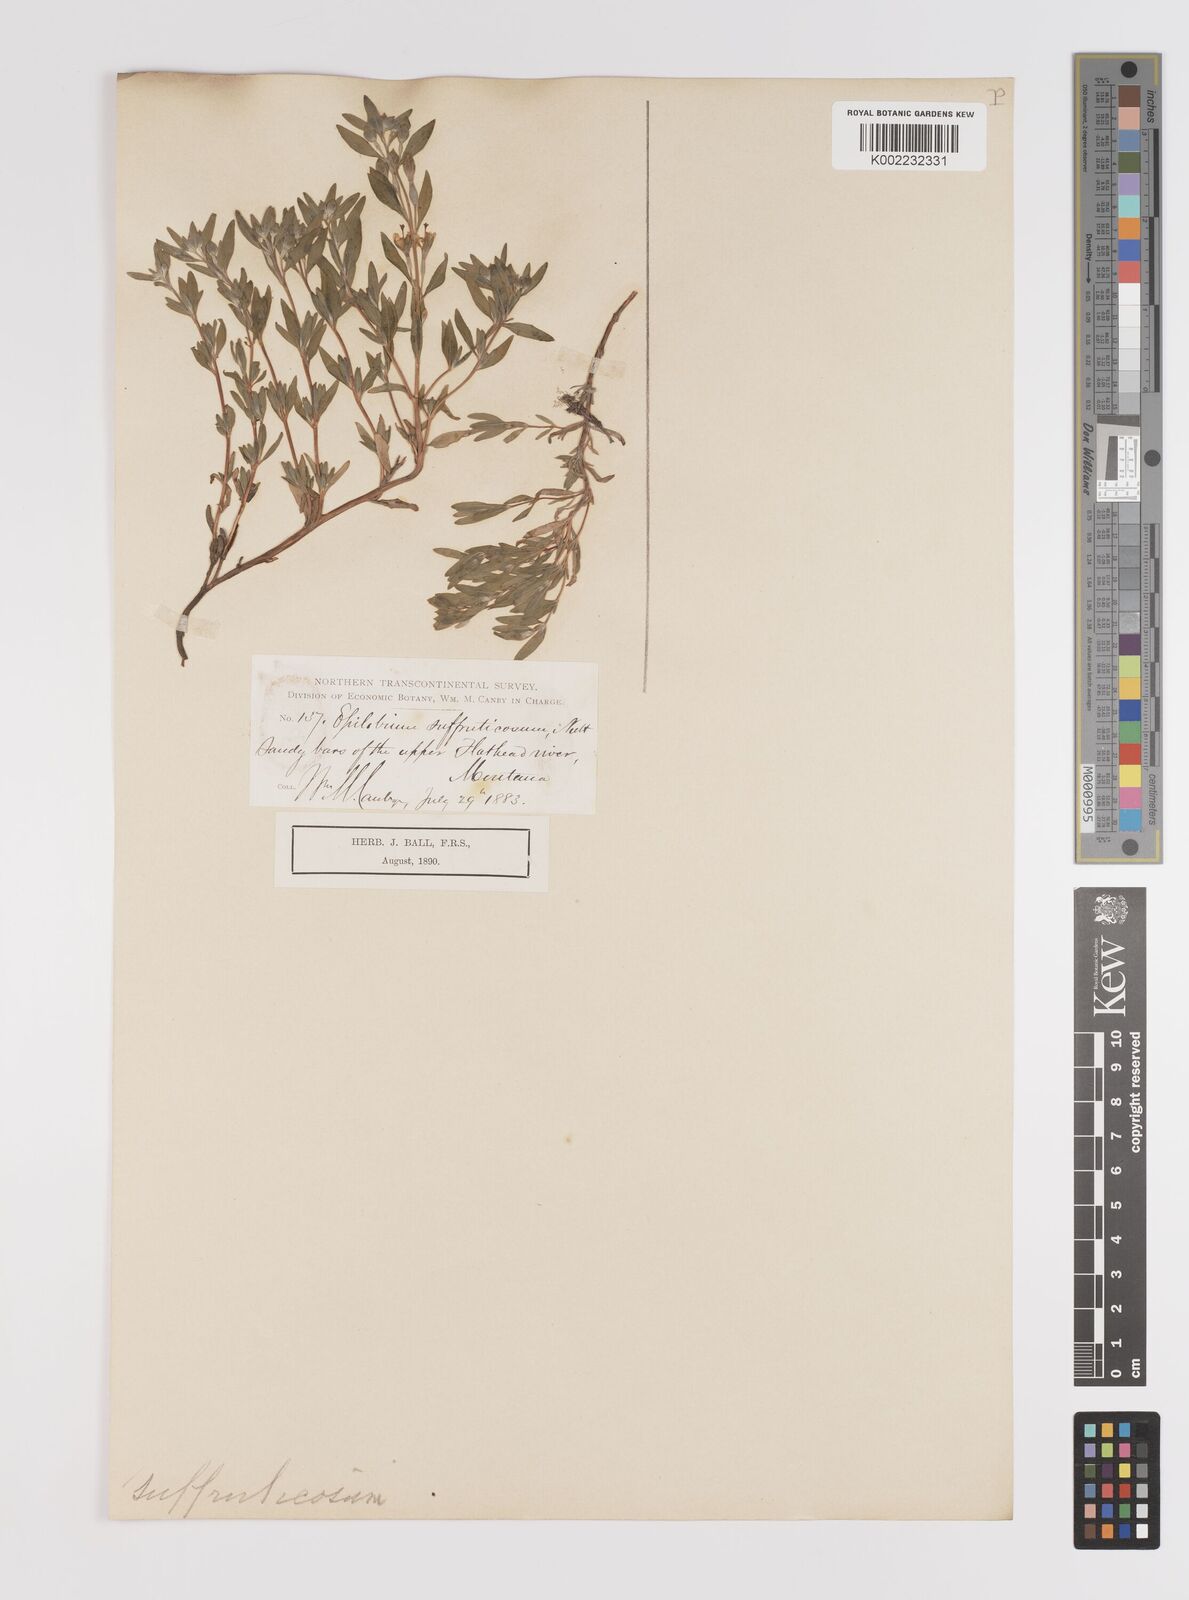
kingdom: Plantae
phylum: Tracheophyta
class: Magnoliopsida
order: Myrtales
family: Onagraceae
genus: Epilobium
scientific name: Epilobium suffruticosum
